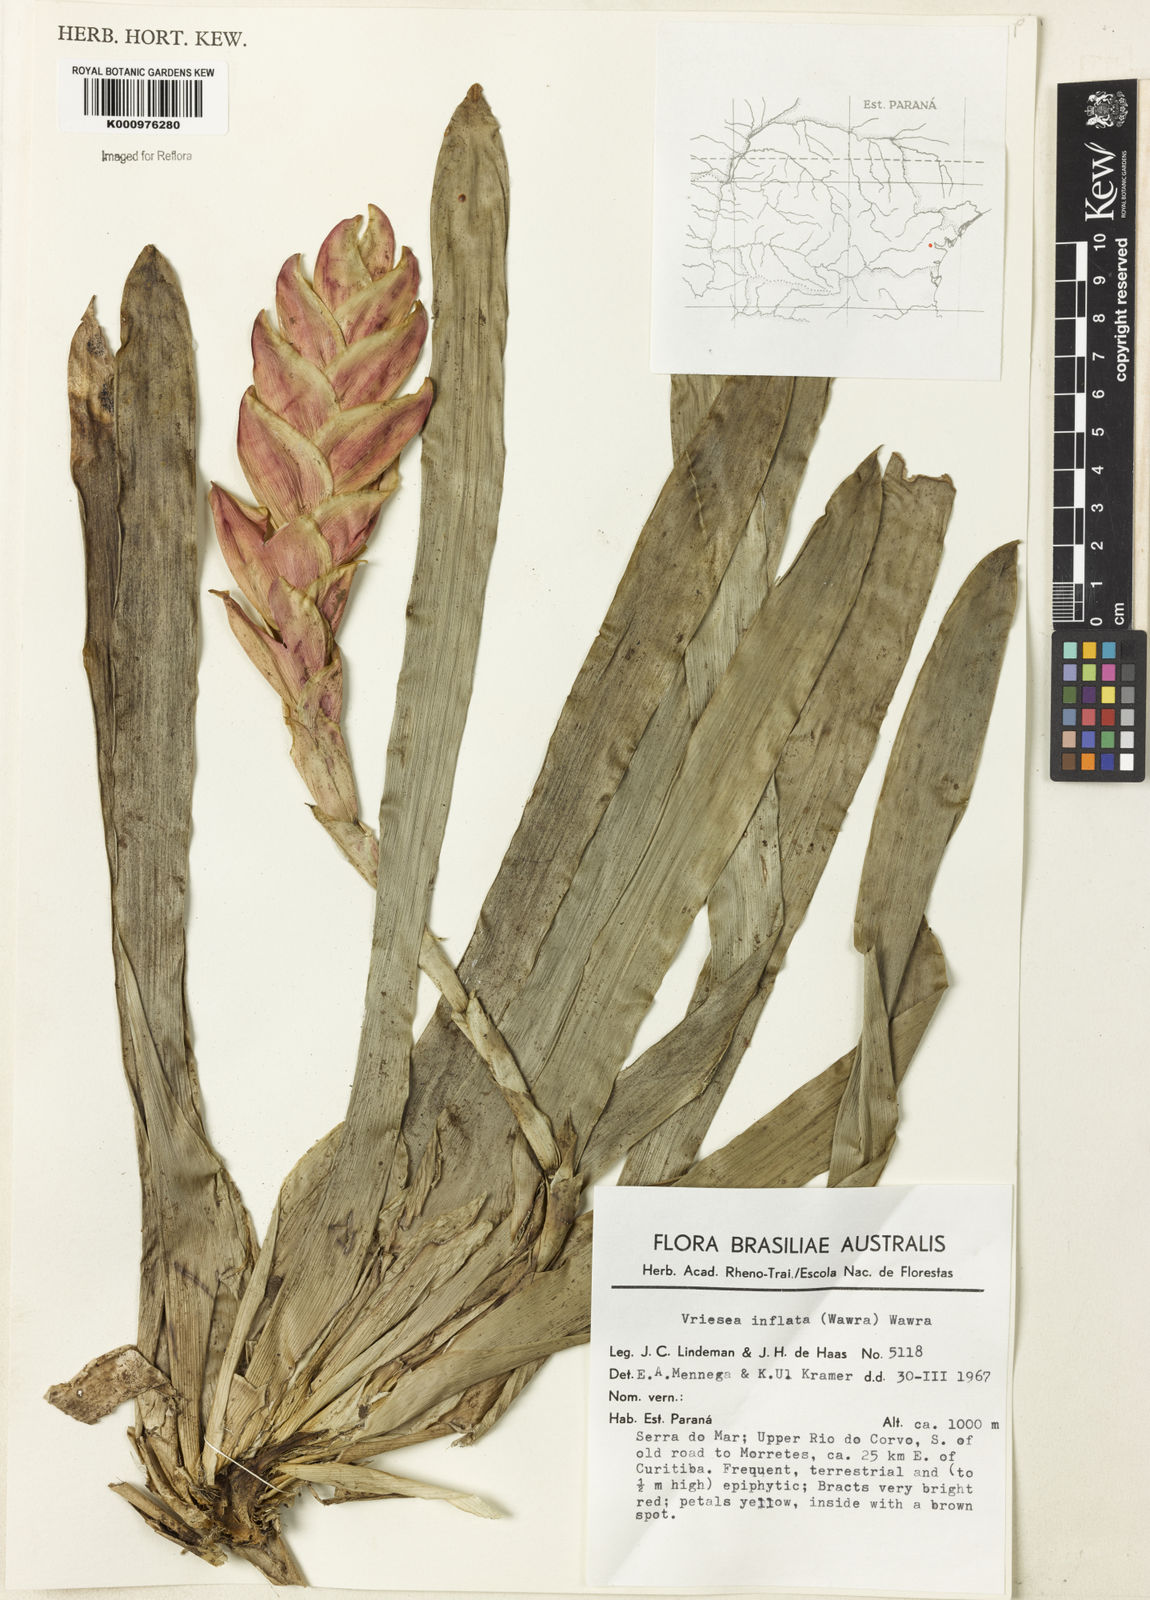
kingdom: Plantae
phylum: Tracheophyta
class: Liliopsida
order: Poales
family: Bromeliaceae
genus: Vriesea
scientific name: Vriesea inflata
